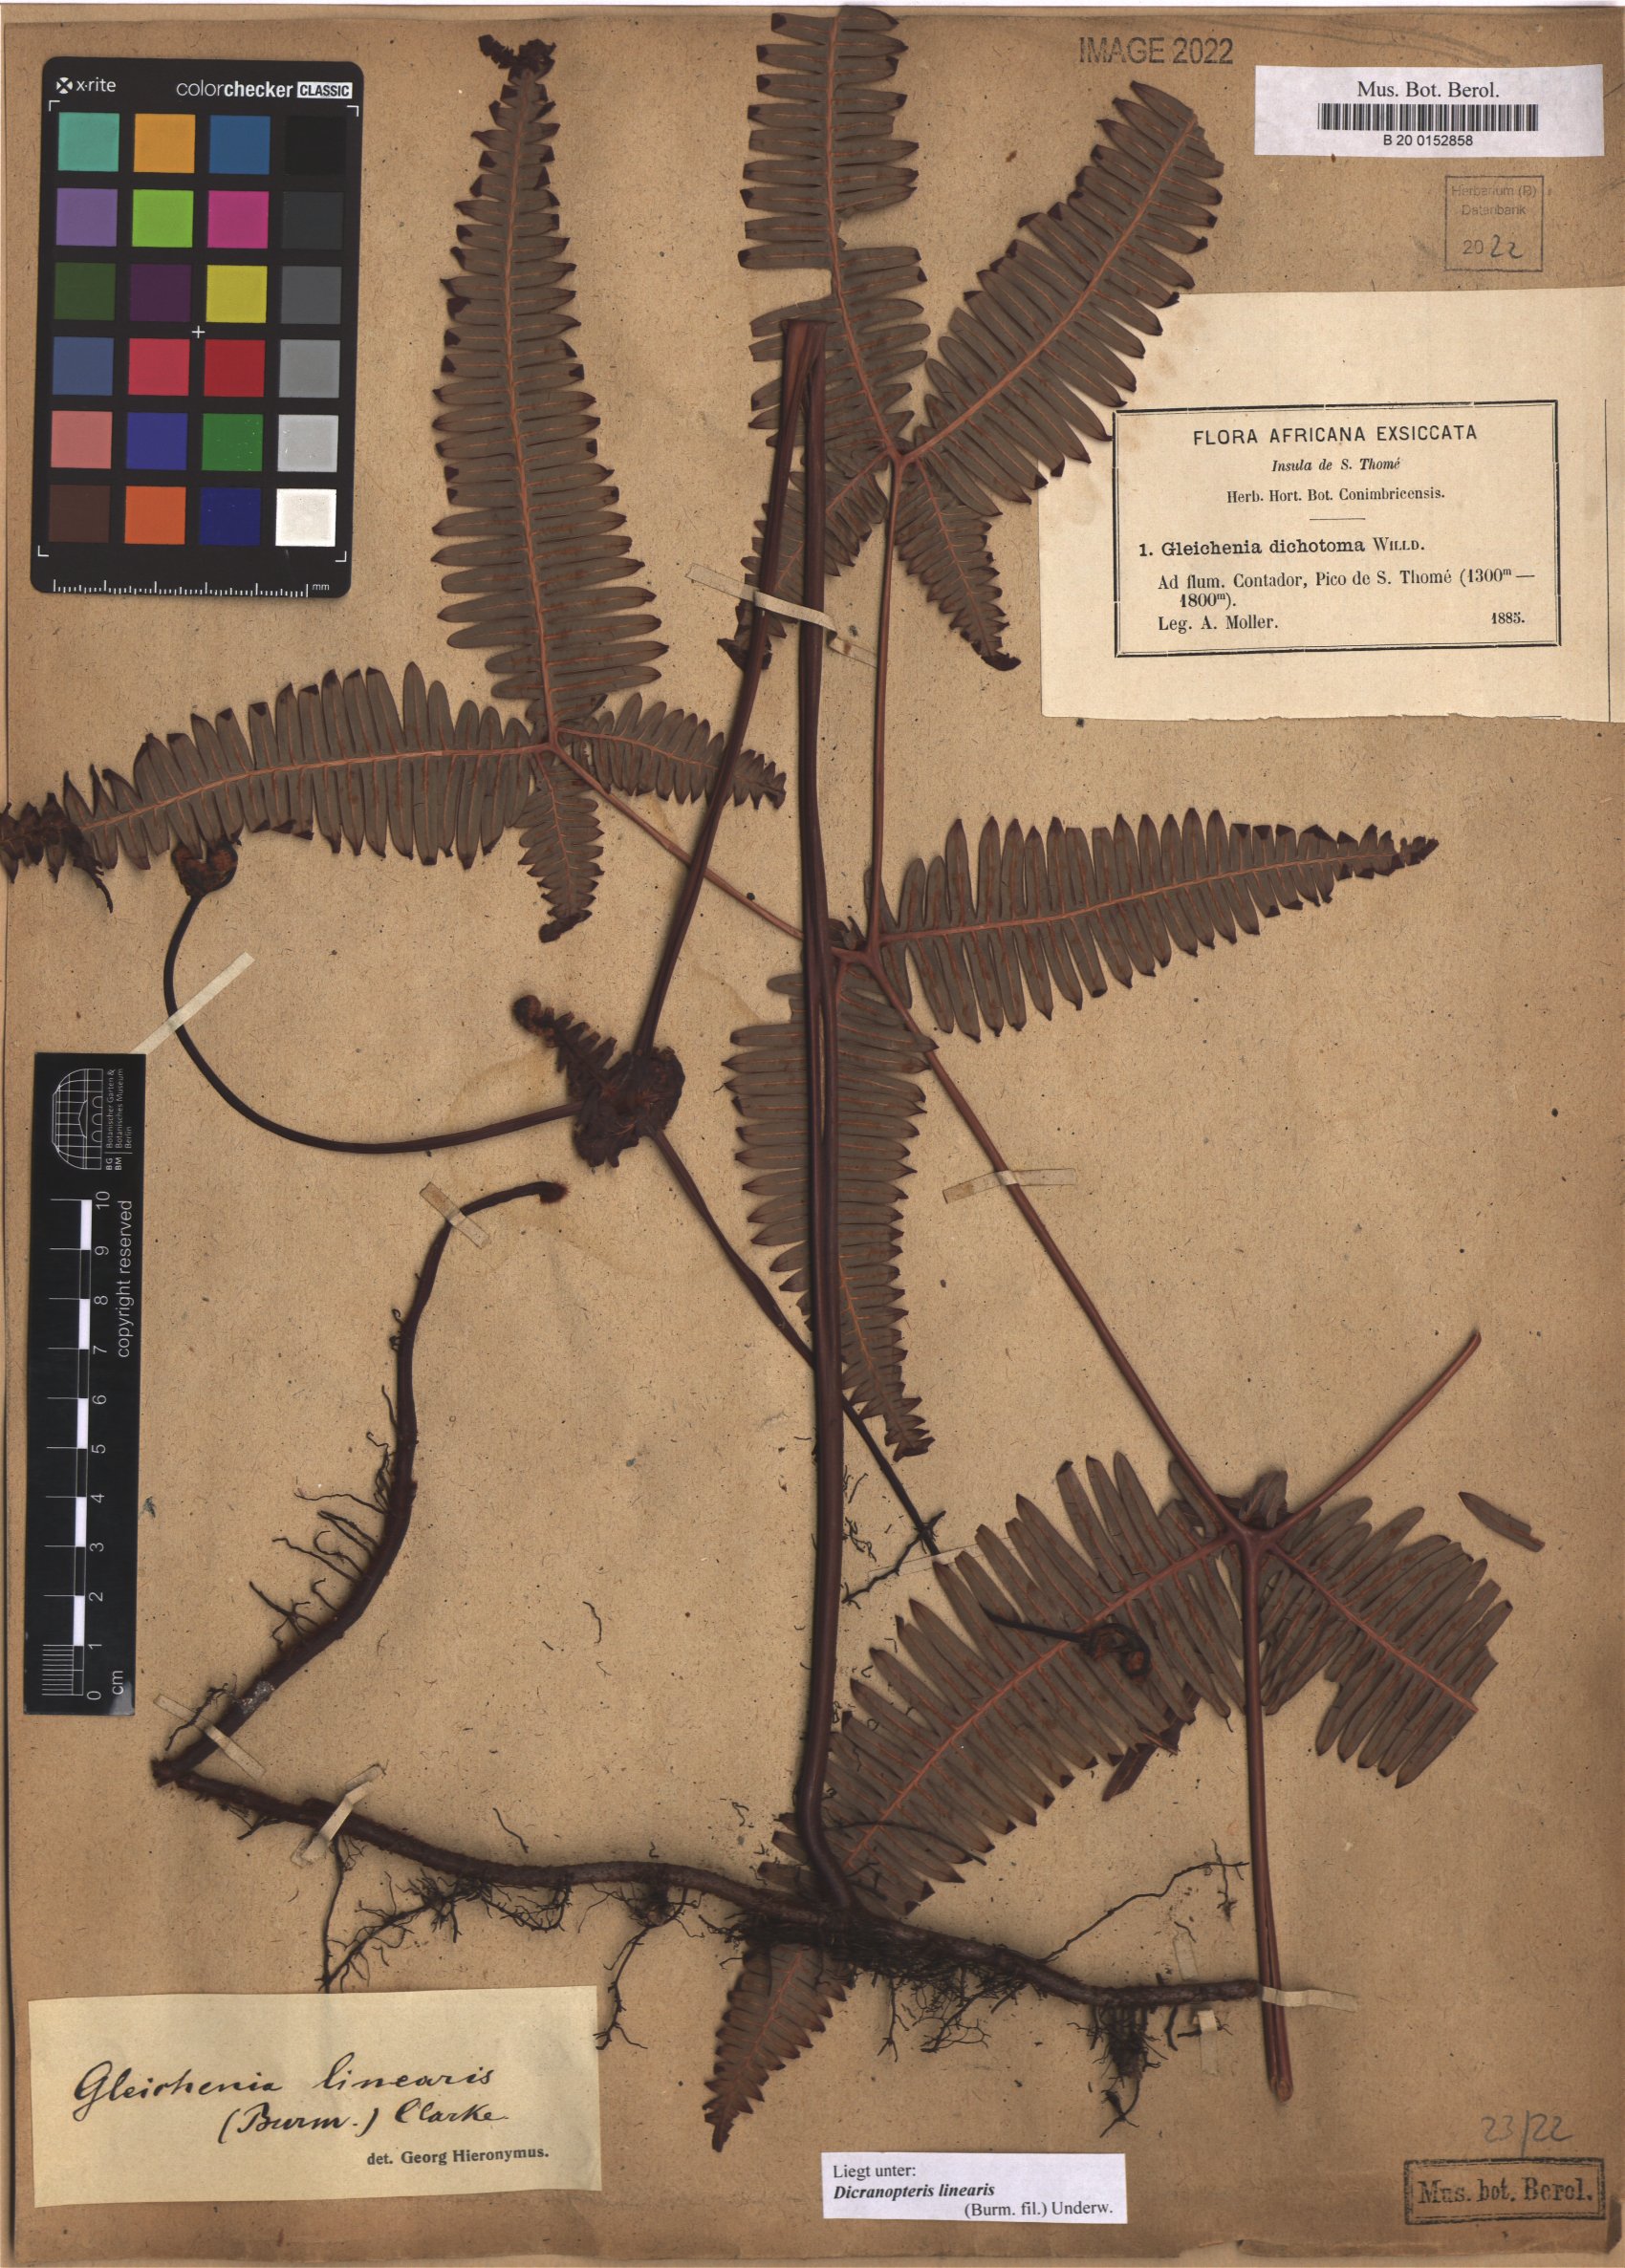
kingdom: Plantae
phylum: Tracheophyta
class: Polypodiopsida
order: Gleicheniales
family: Gleicheniaceae
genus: Dicranopteris
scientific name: Dicranopteris linearis
